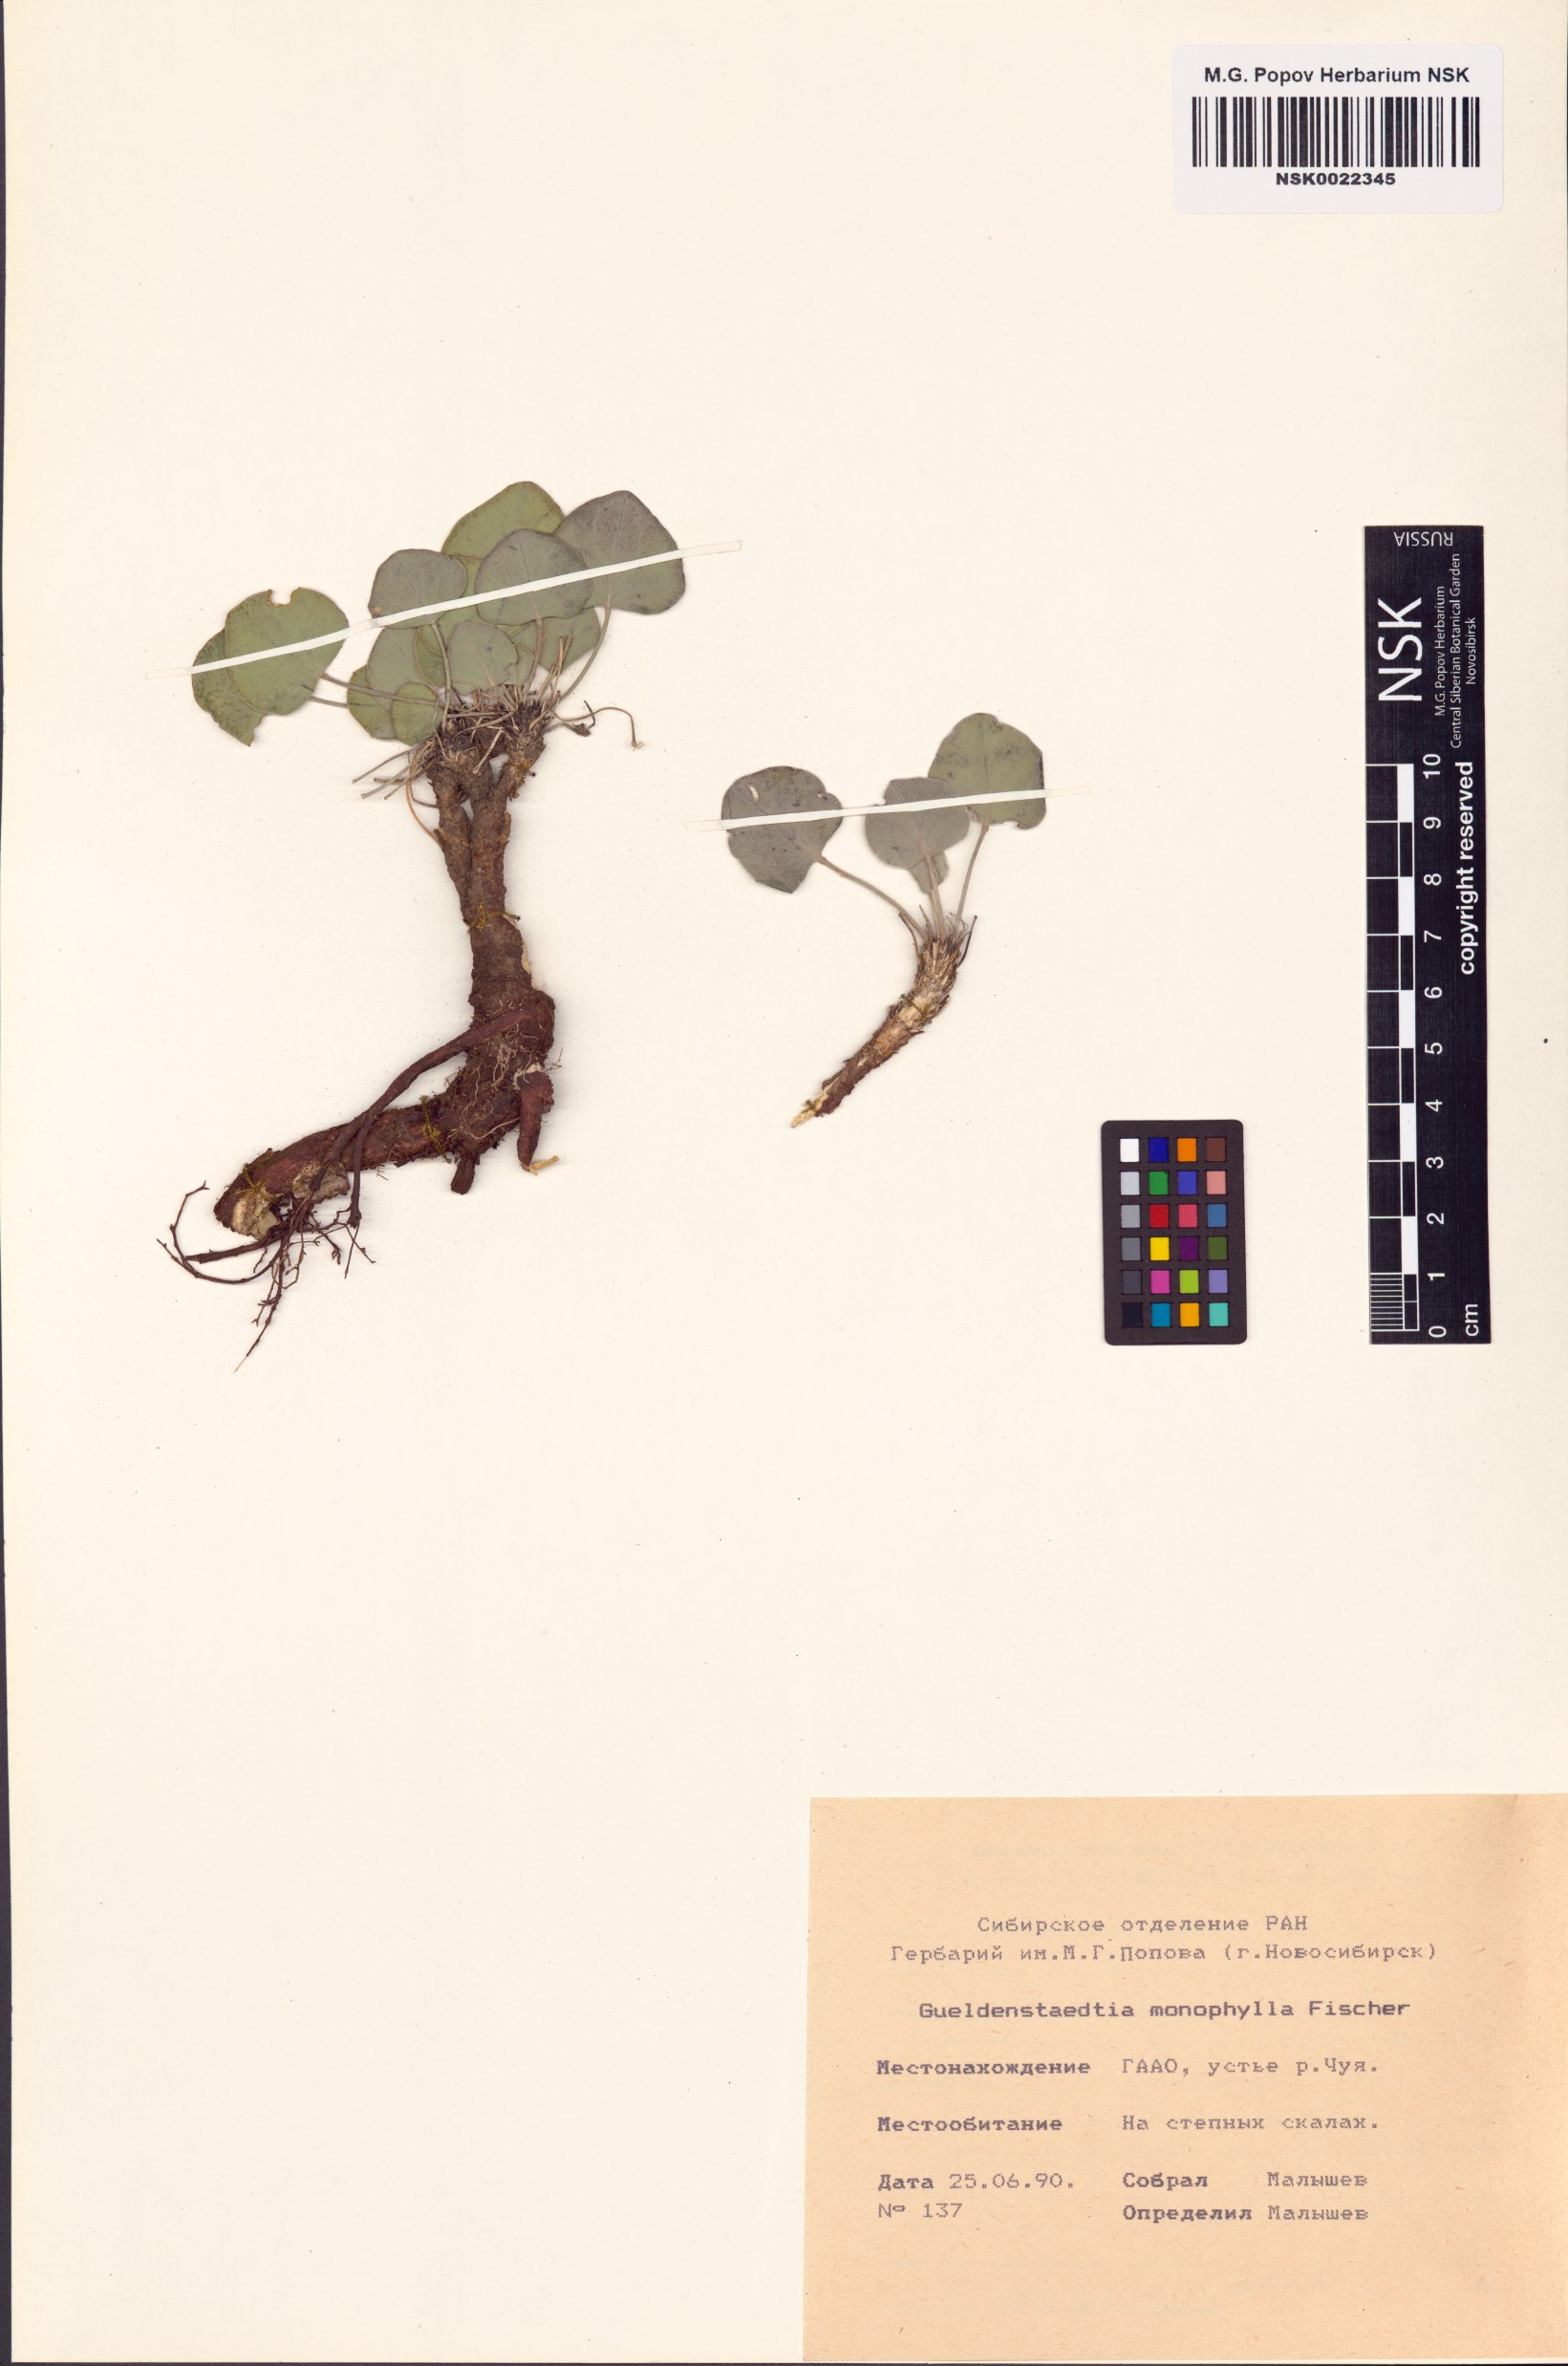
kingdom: Plantae
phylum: Tracheophyta
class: Magnoliopsida
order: Fabales
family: Fabaceae
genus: Gueldenstaedtia
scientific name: Gueldenstaedtia monophylla
